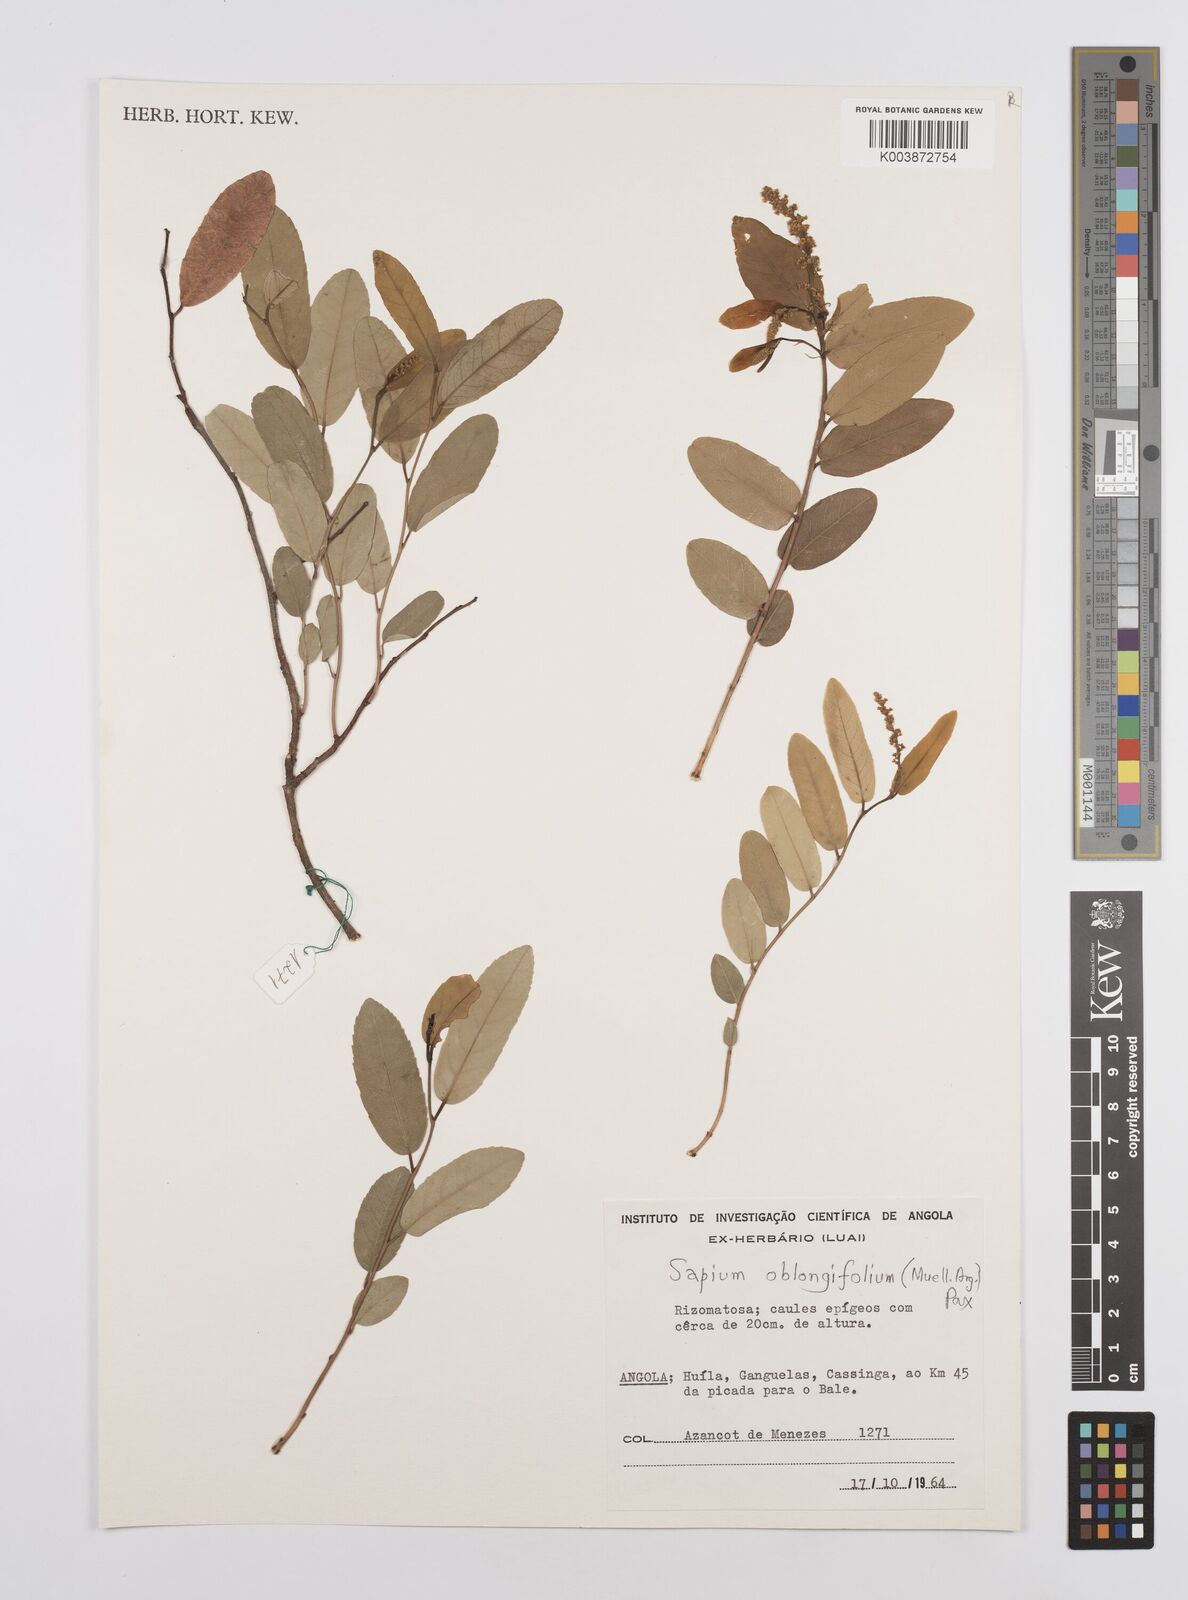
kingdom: Plantae
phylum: Tracheophyta
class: Magnoliopsida
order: Malpighiales
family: Euphorbiaceae
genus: Sclerocroton
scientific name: Sclerocroton oblongifolius
